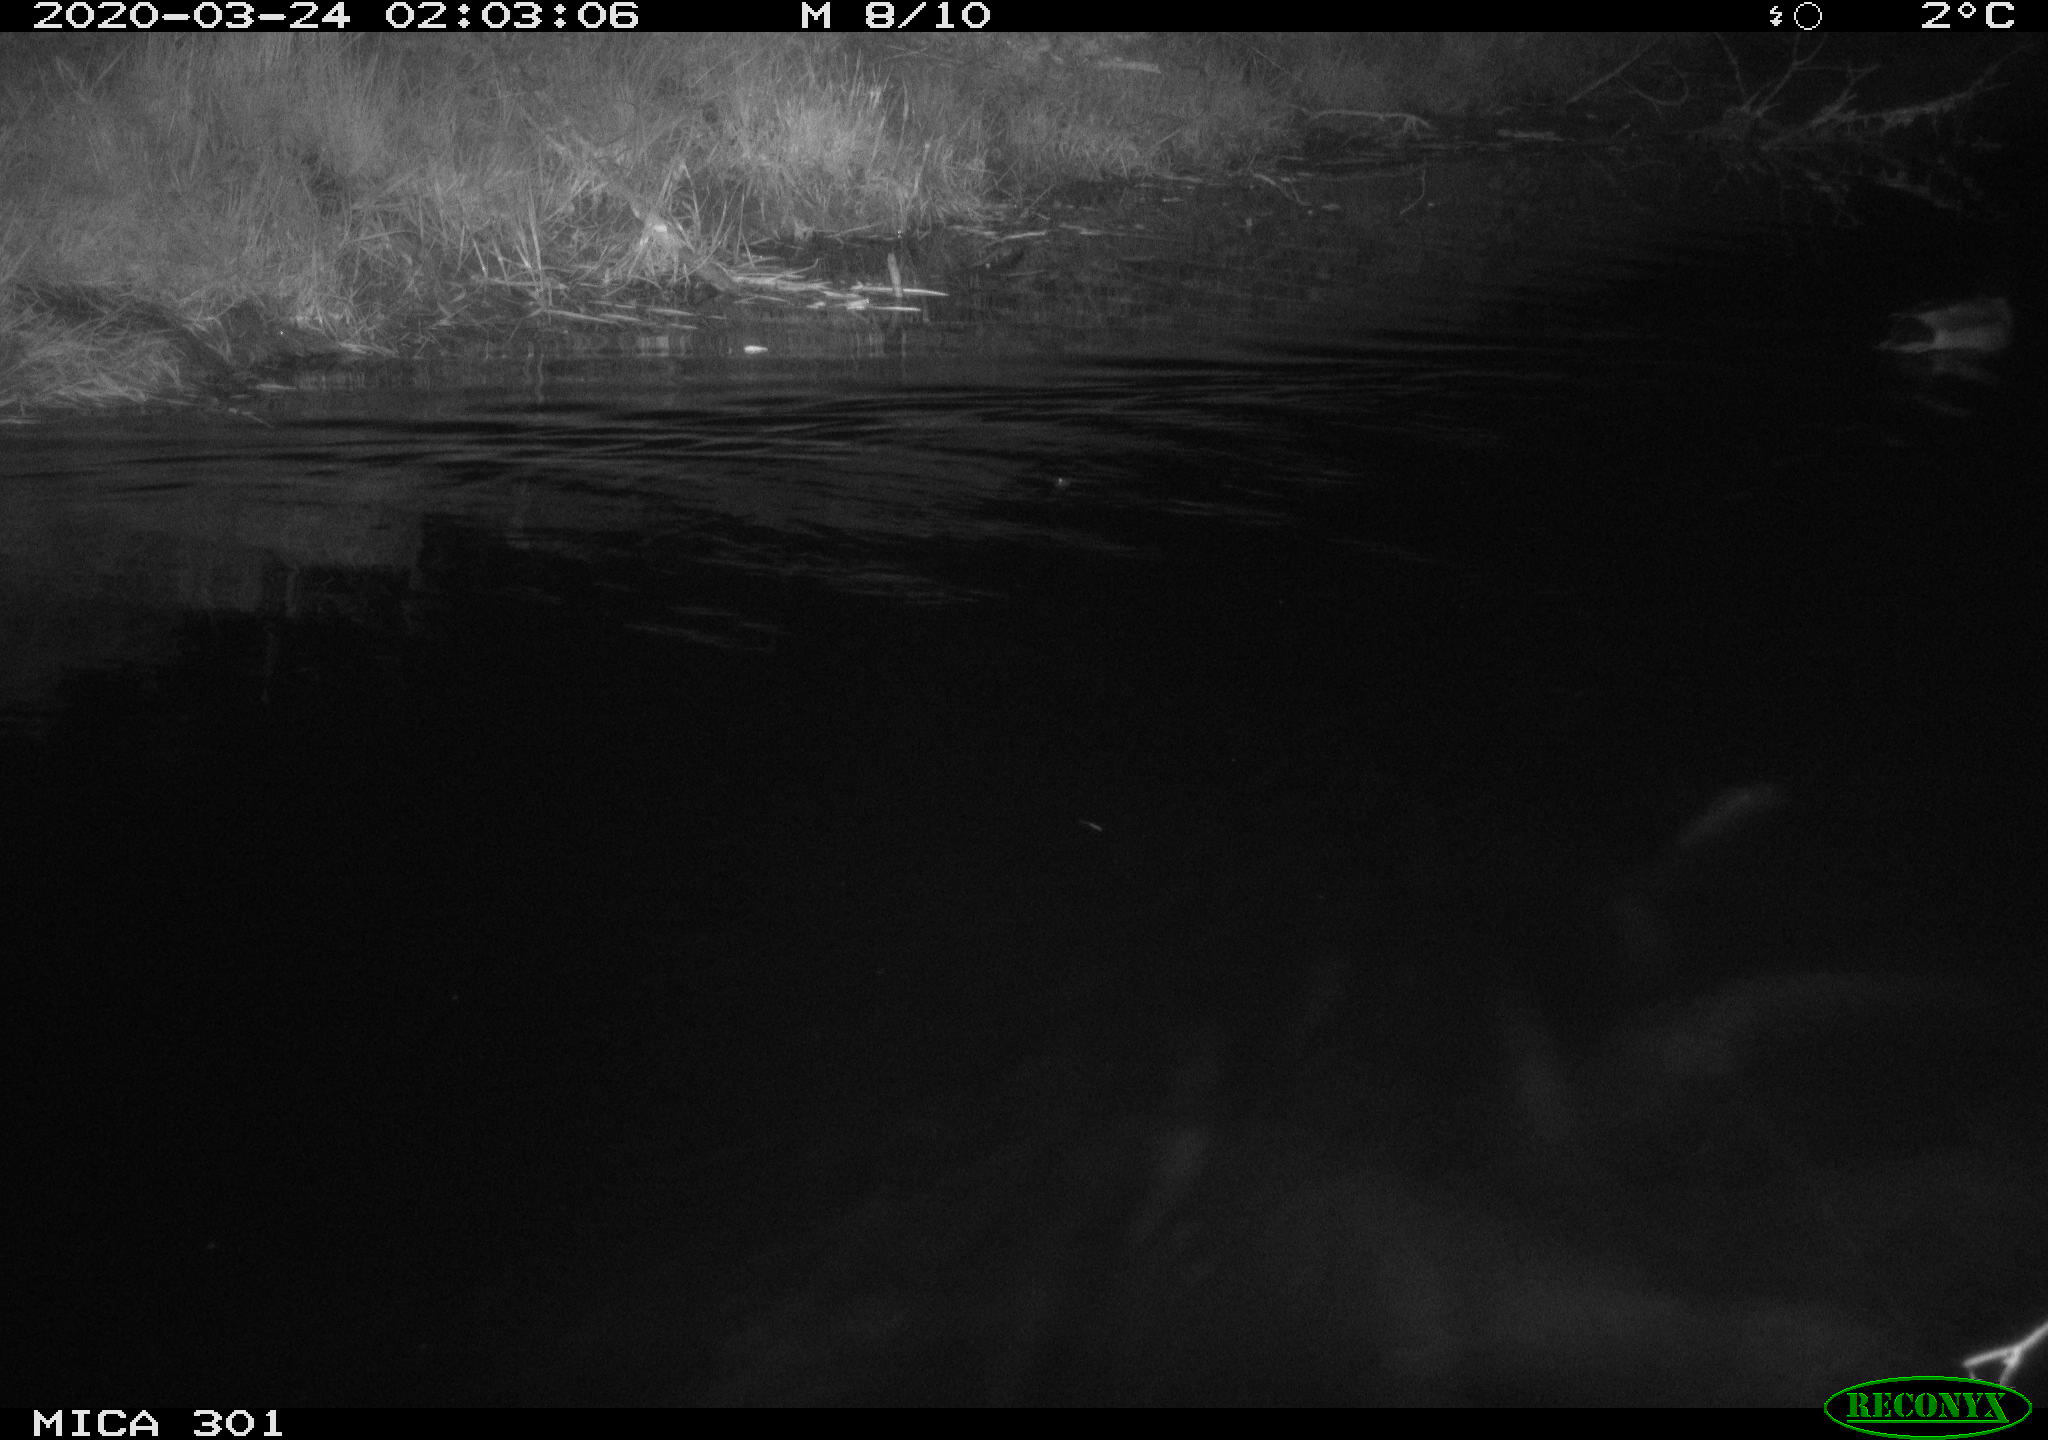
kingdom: Animalia
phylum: Chordata
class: Aves
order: Anseriformes
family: Anatidae
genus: Anas
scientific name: Anas platyrhynchos
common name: Mallard
